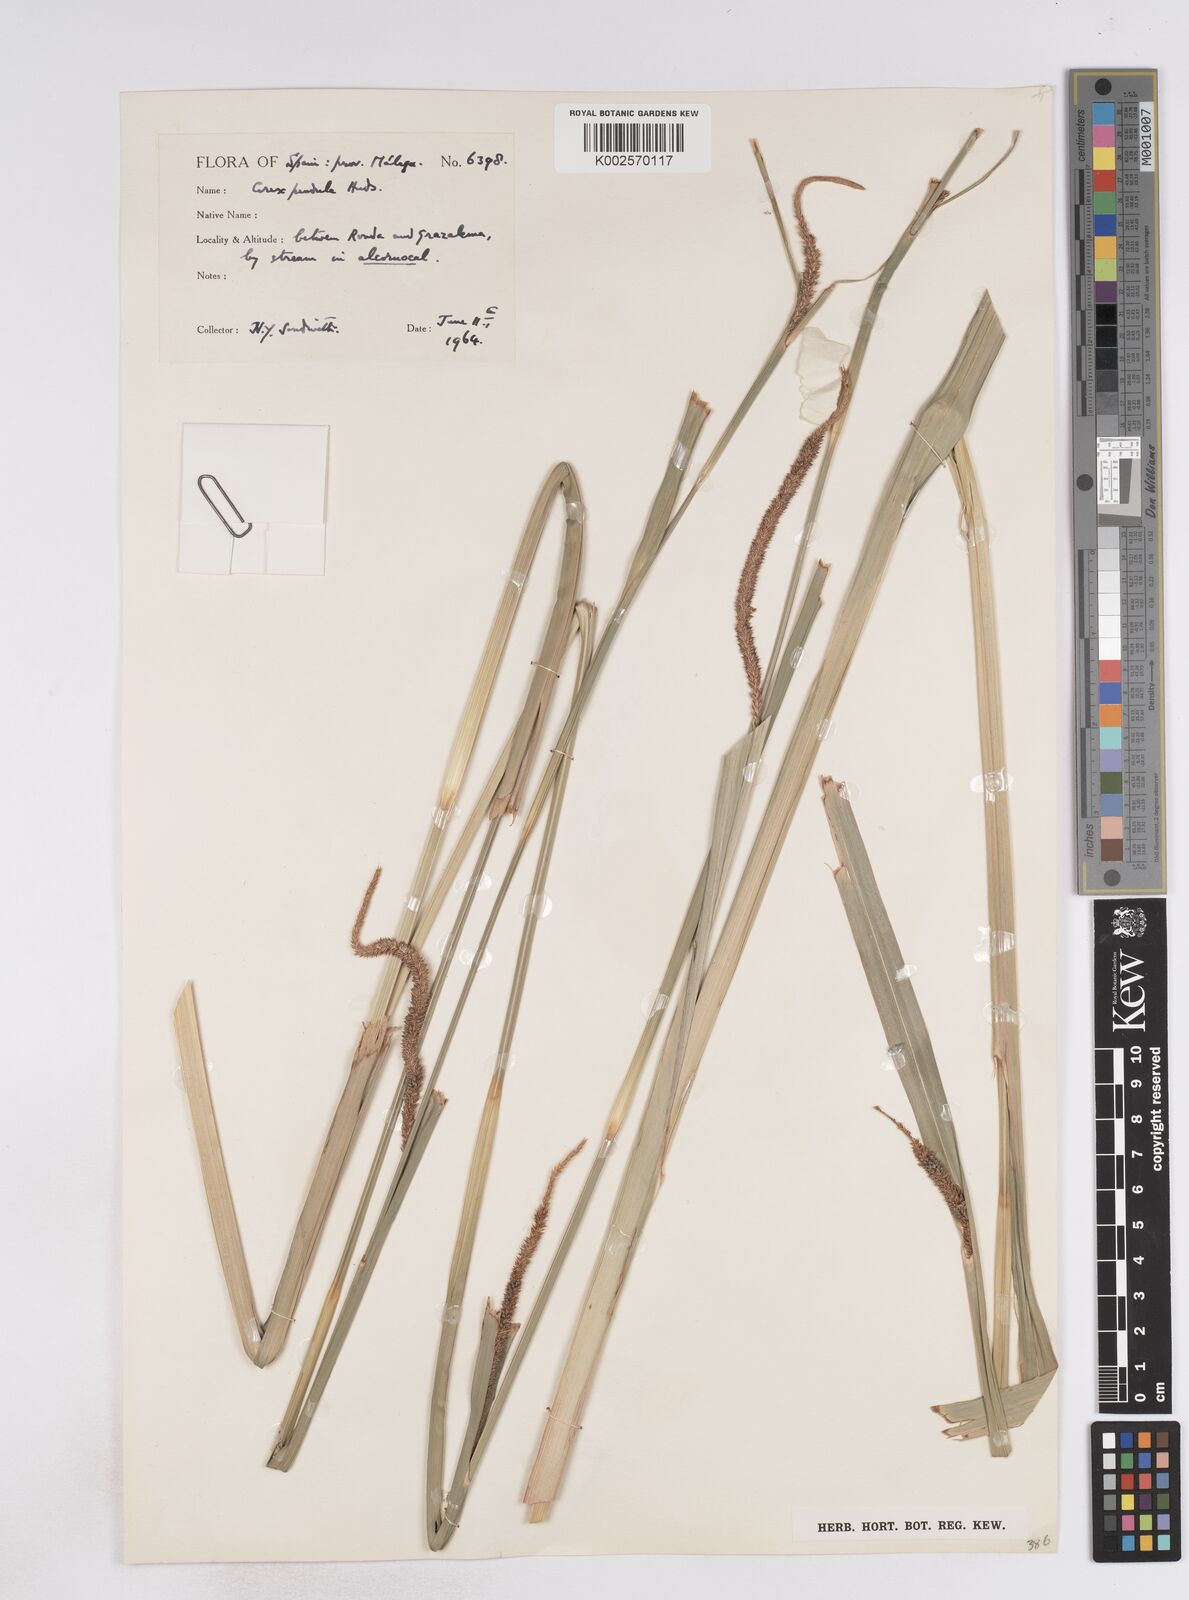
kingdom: Plantae
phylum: Tracheophyta
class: Liliopsida
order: Poales
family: Cyperaceae
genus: Carex
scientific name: Carex pendula
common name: Pendulous sedge
